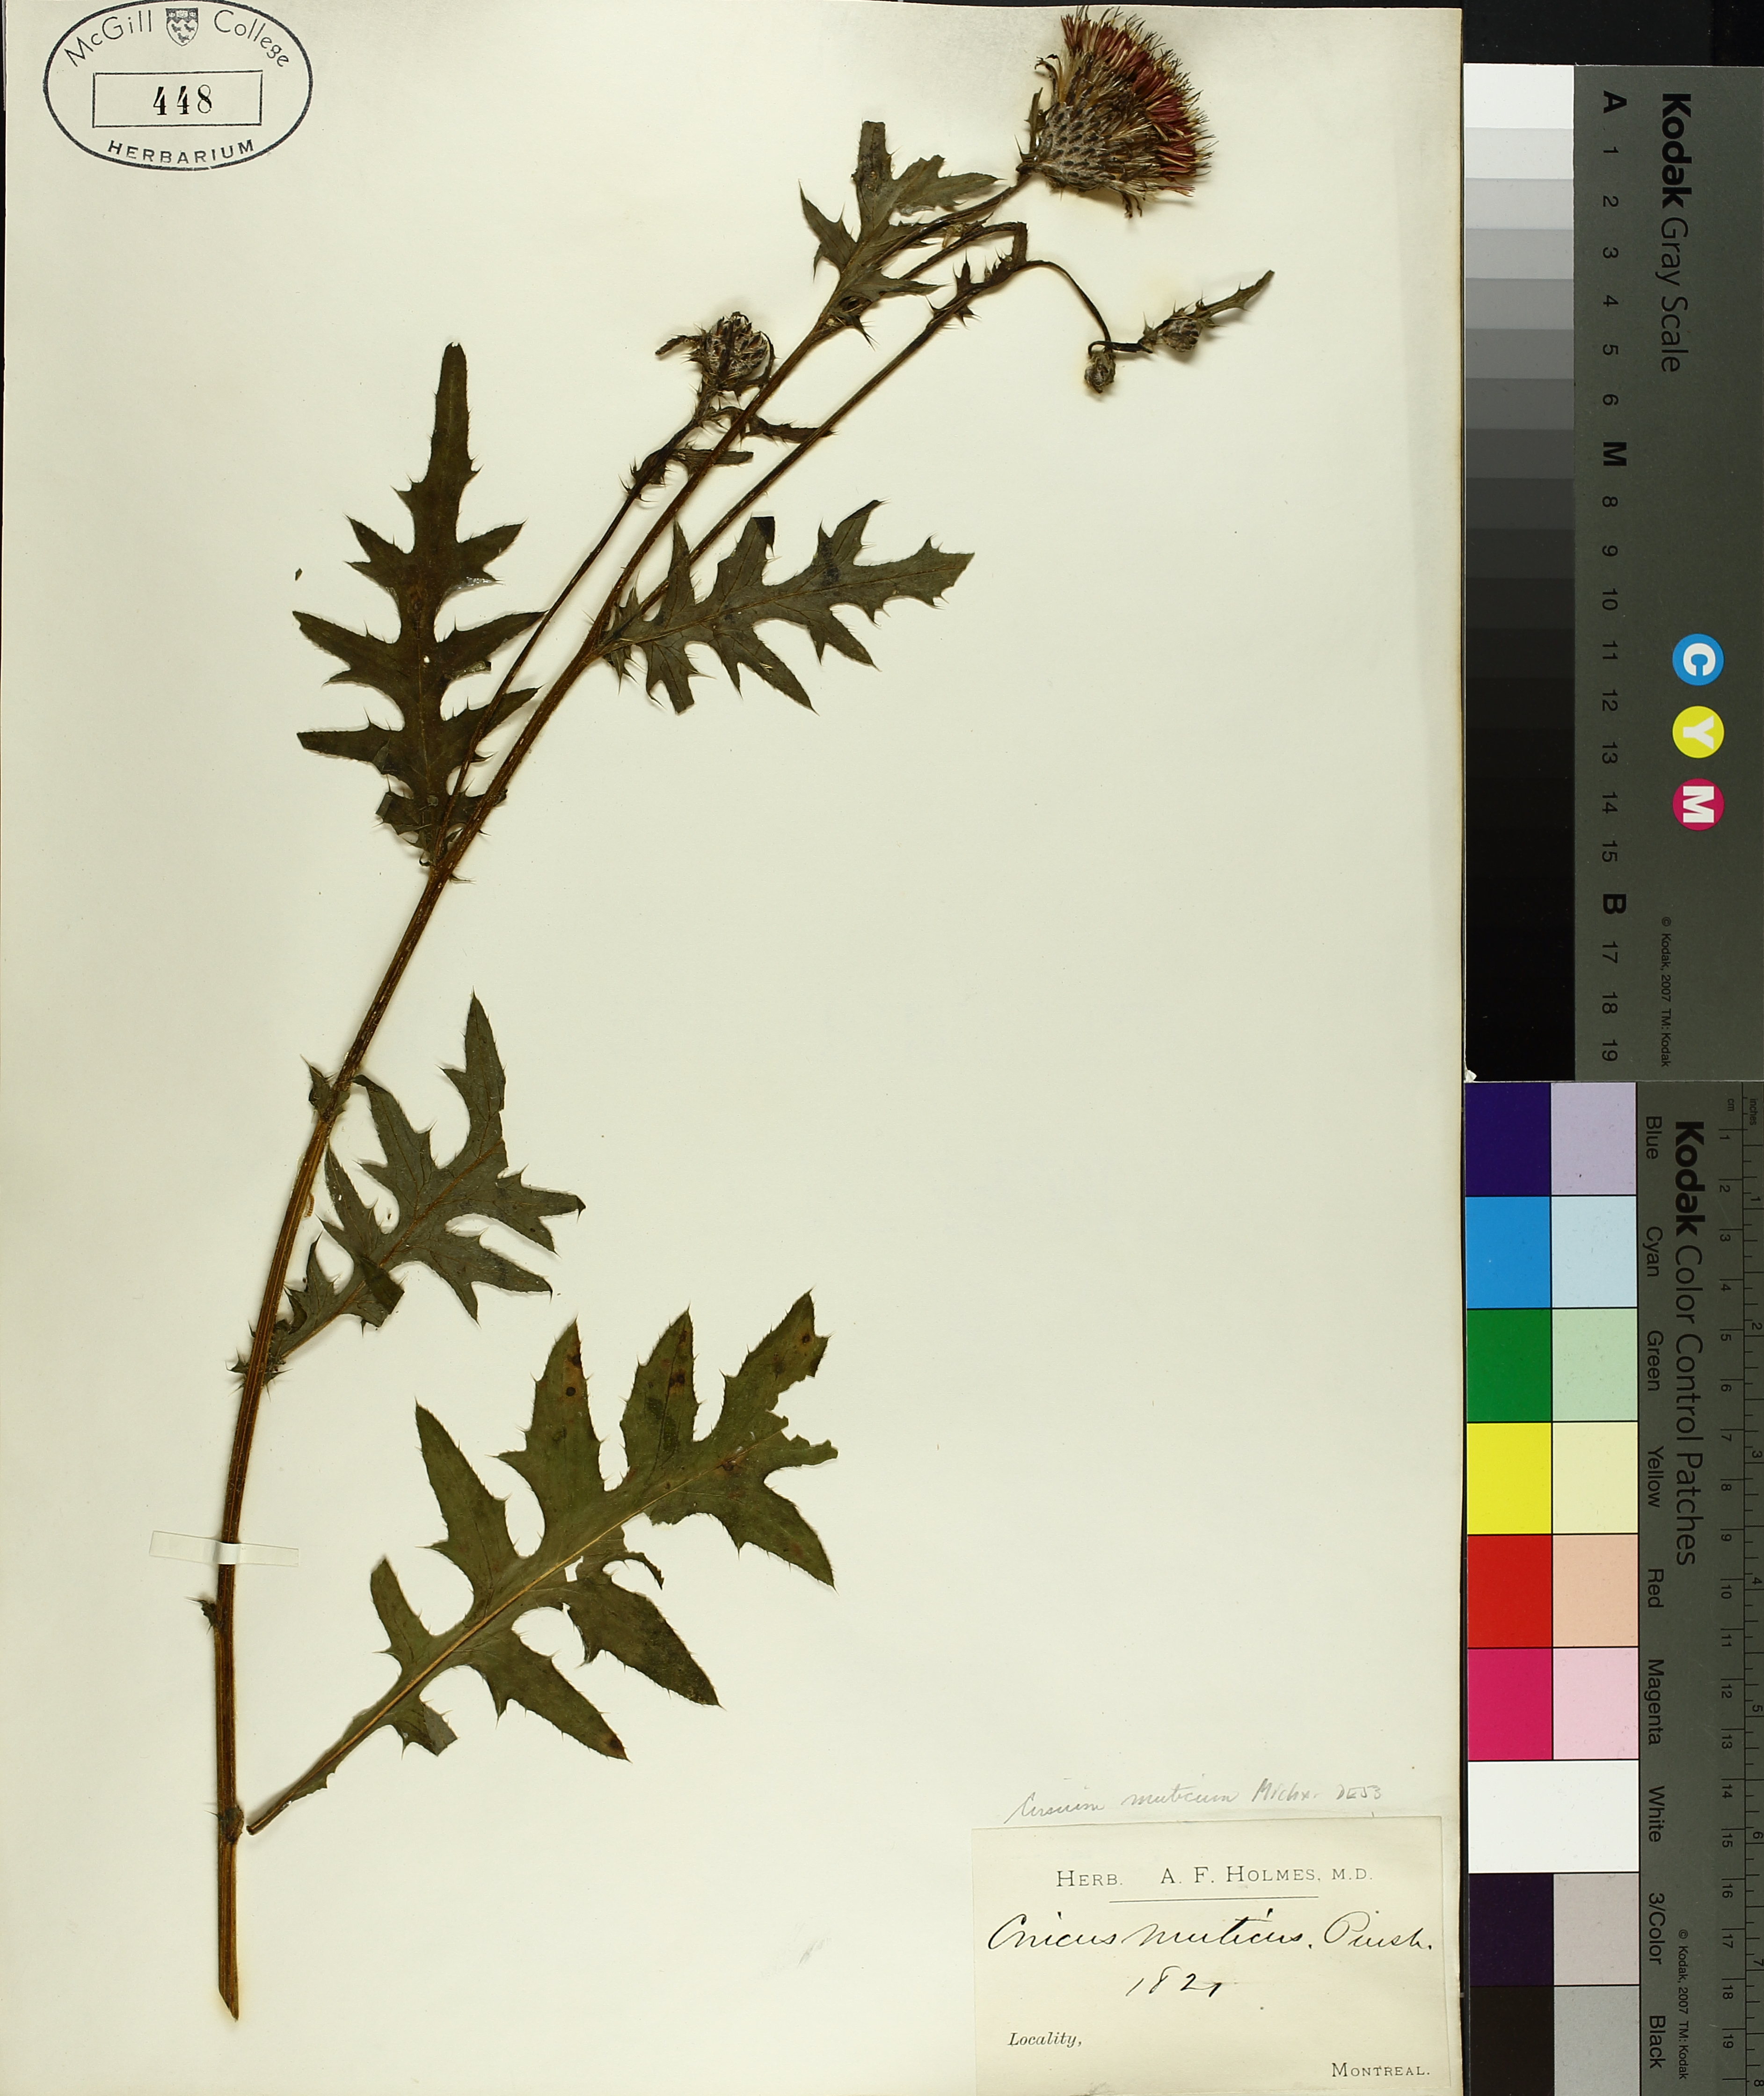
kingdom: Plantae
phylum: Tracheophyta
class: Magnoliopsida
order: Asterales
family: Asteraceae
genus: Cirsium
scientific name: Cirsium muticum
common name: Dunce-nettle
